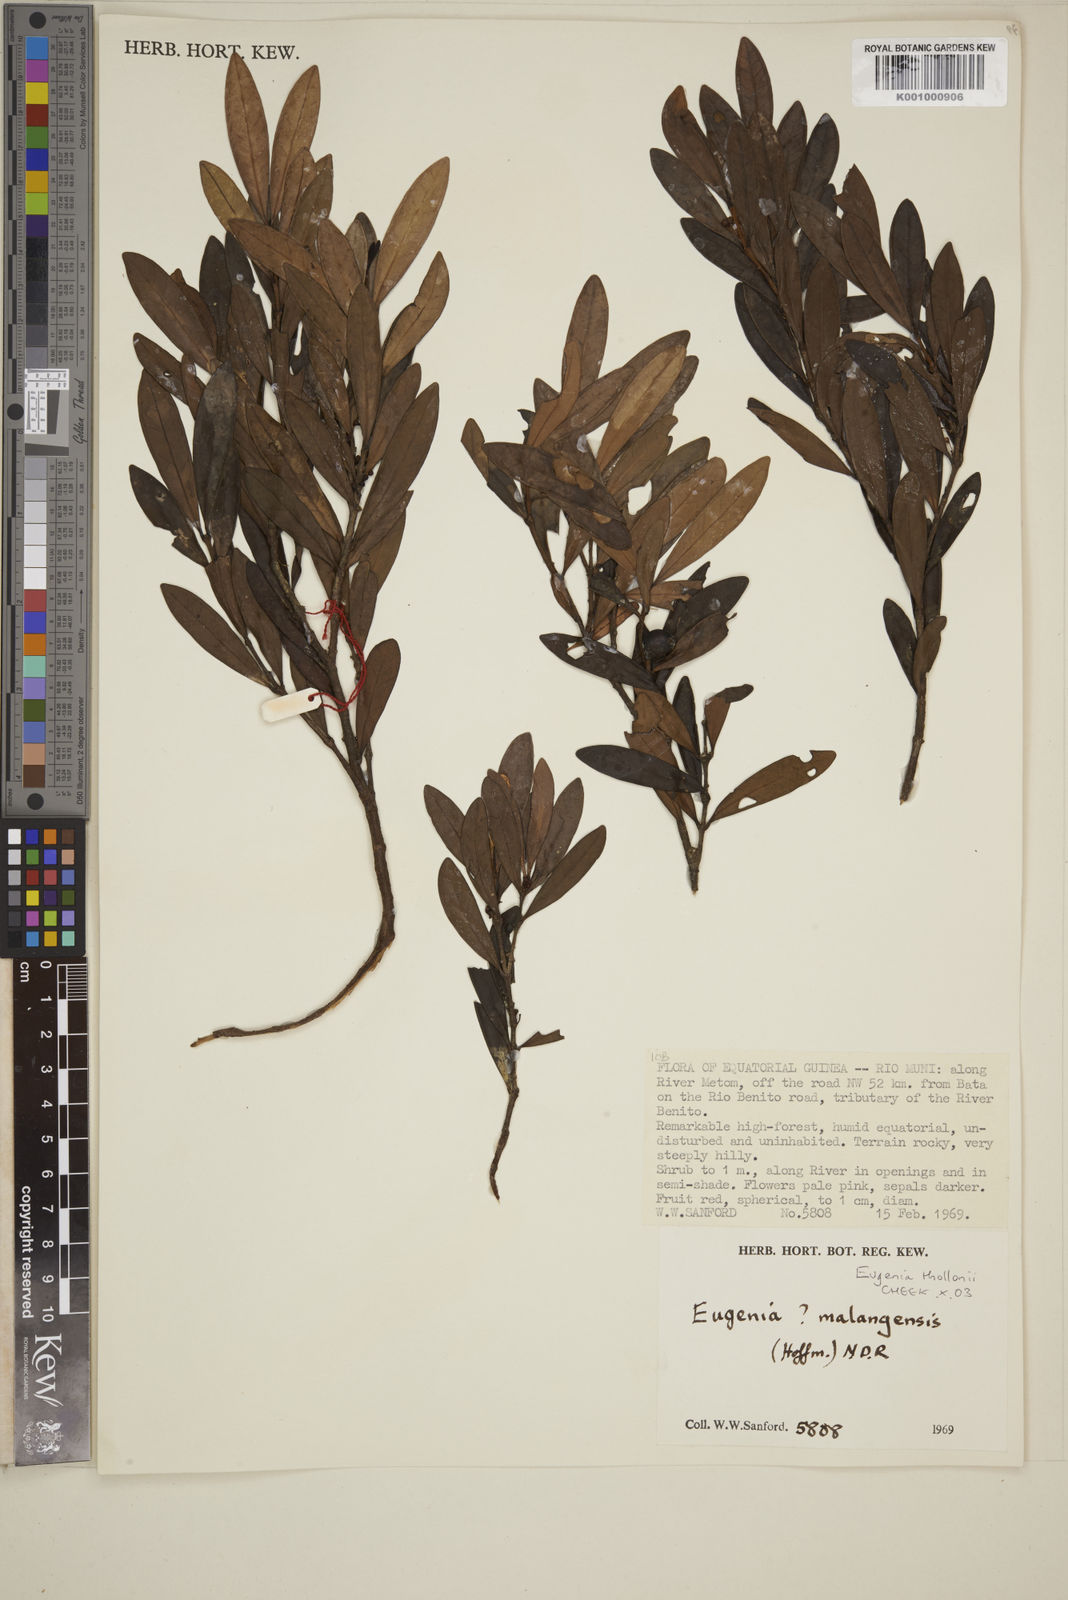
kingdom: Plantae
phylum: Tracheophyta
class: Magnoliopsida
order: Myrtales
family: Myrtaceae
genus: Eugenia
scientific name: Eugenia thollonii
